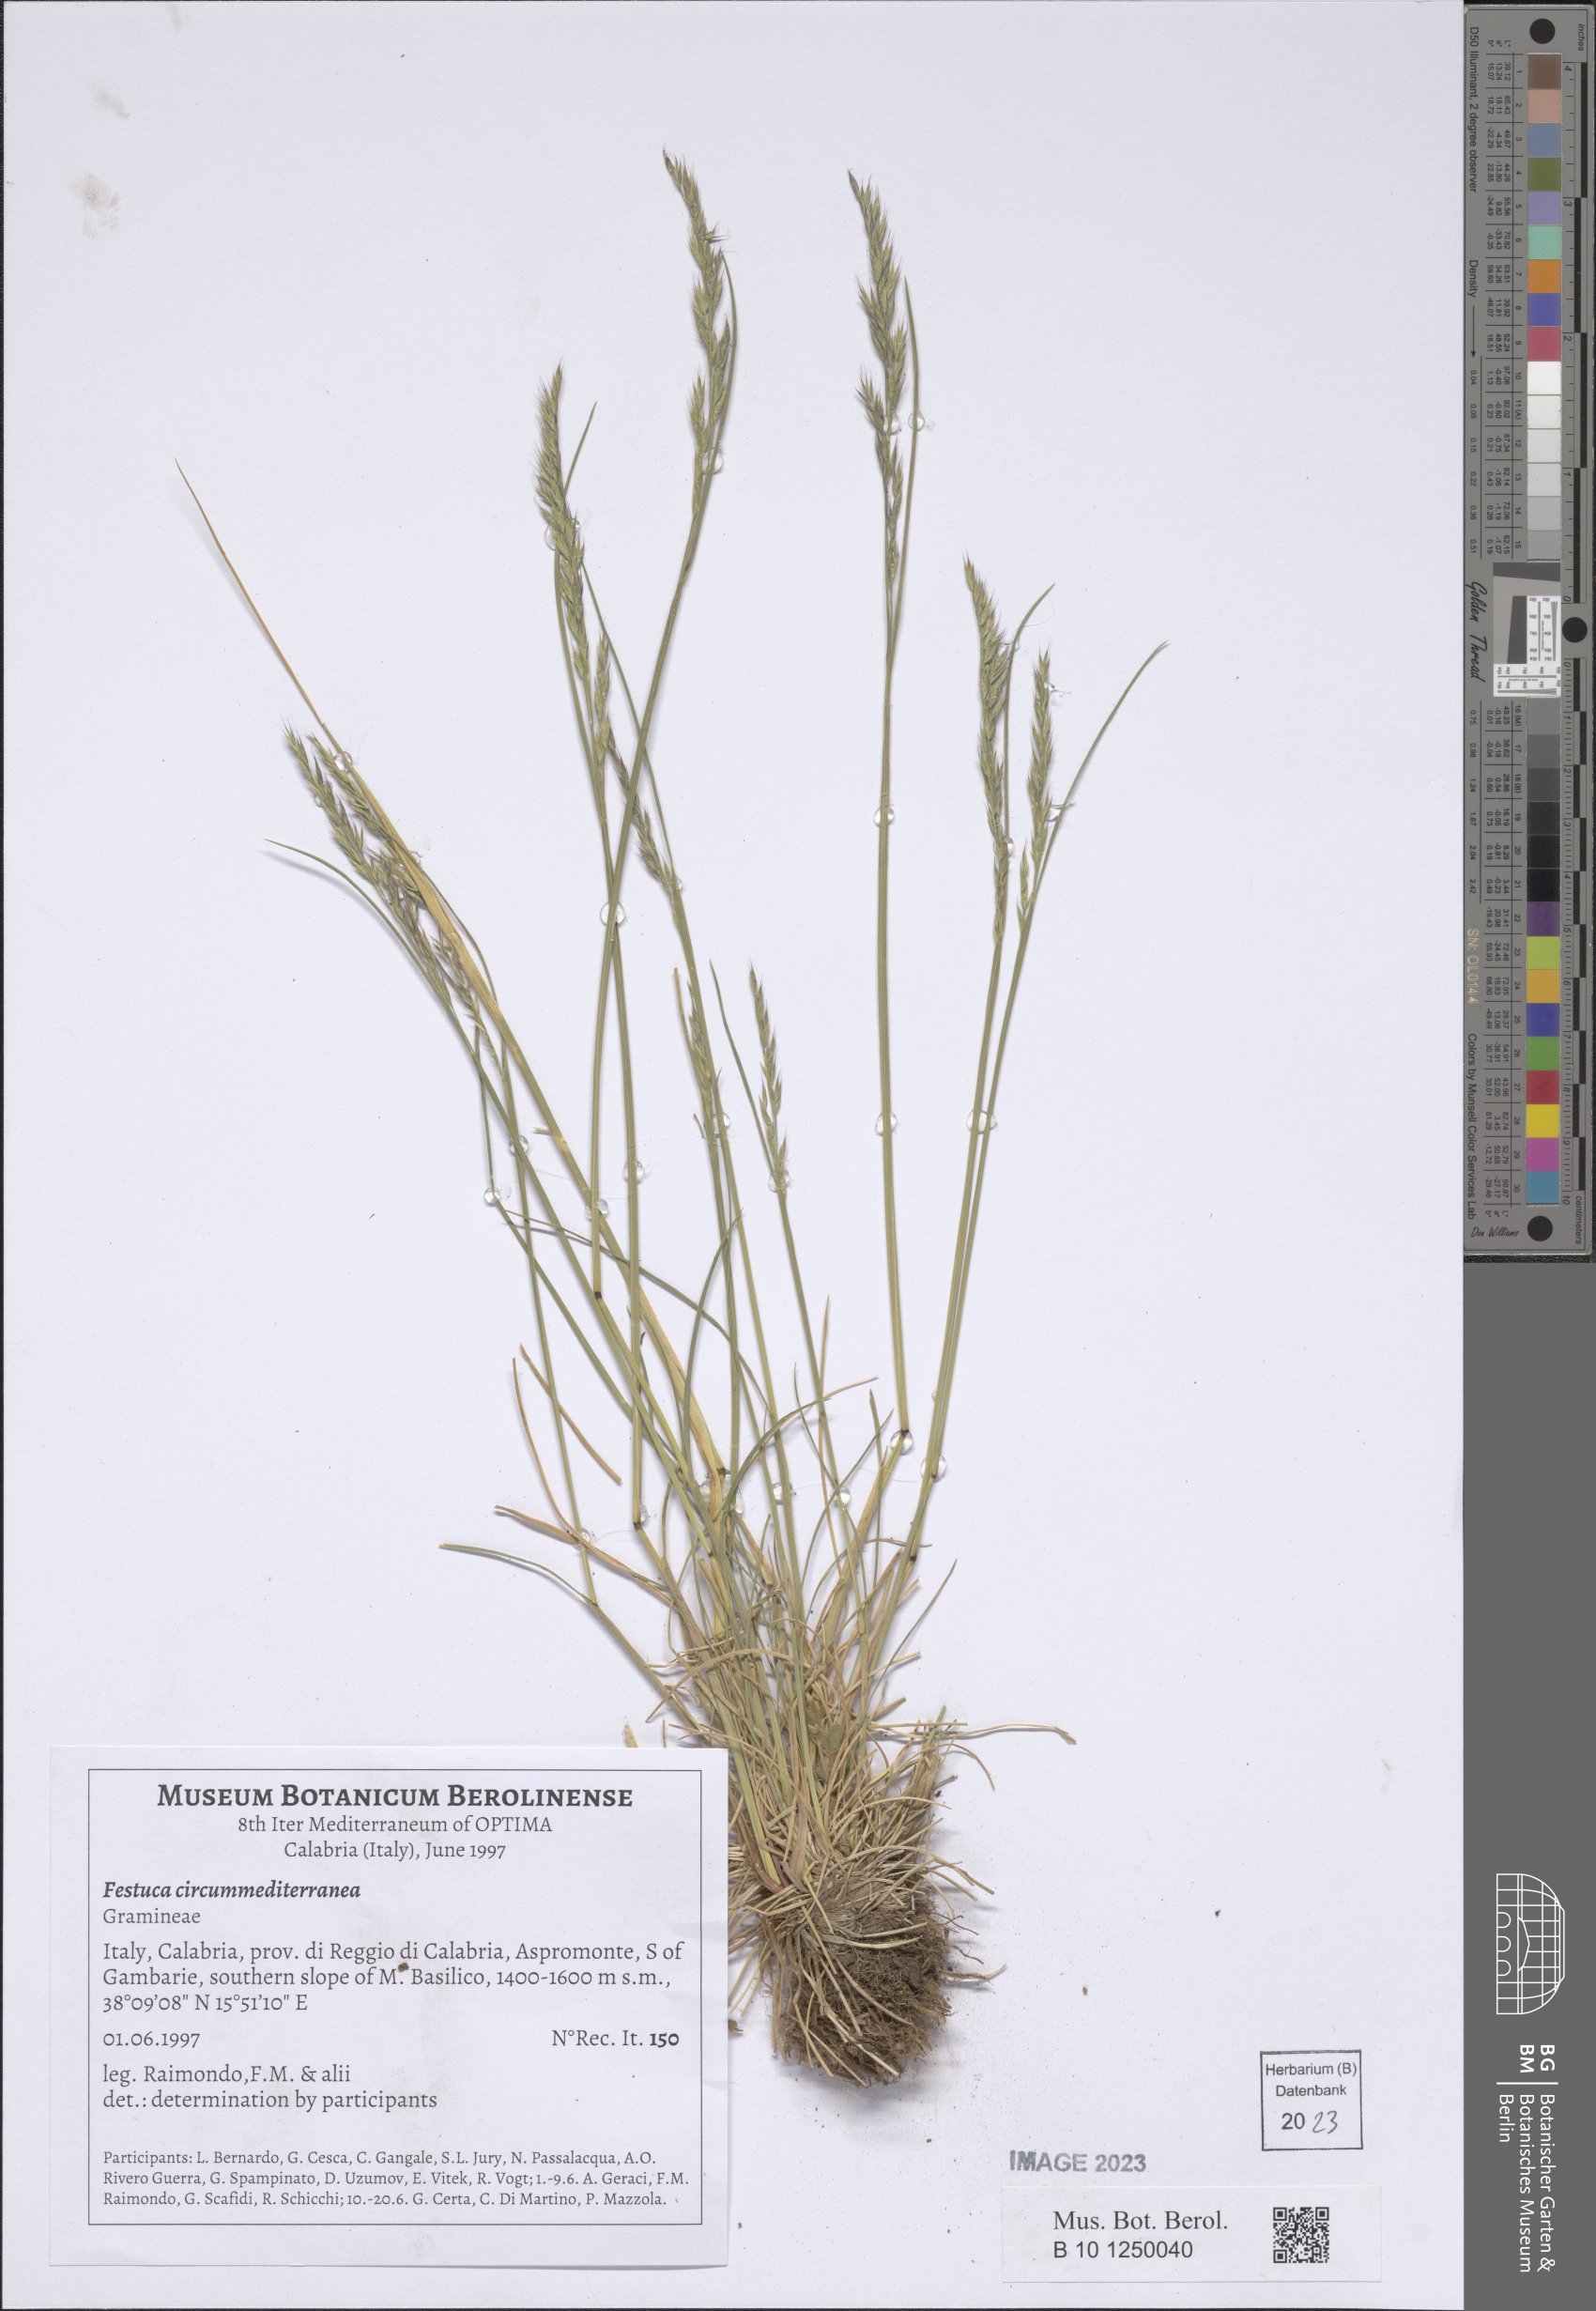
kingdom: Plantae
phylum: Tracheophyta
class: Liliopsida
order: Poales
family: Poaceae
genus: Festuca
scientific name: Festuca circummediterranea
